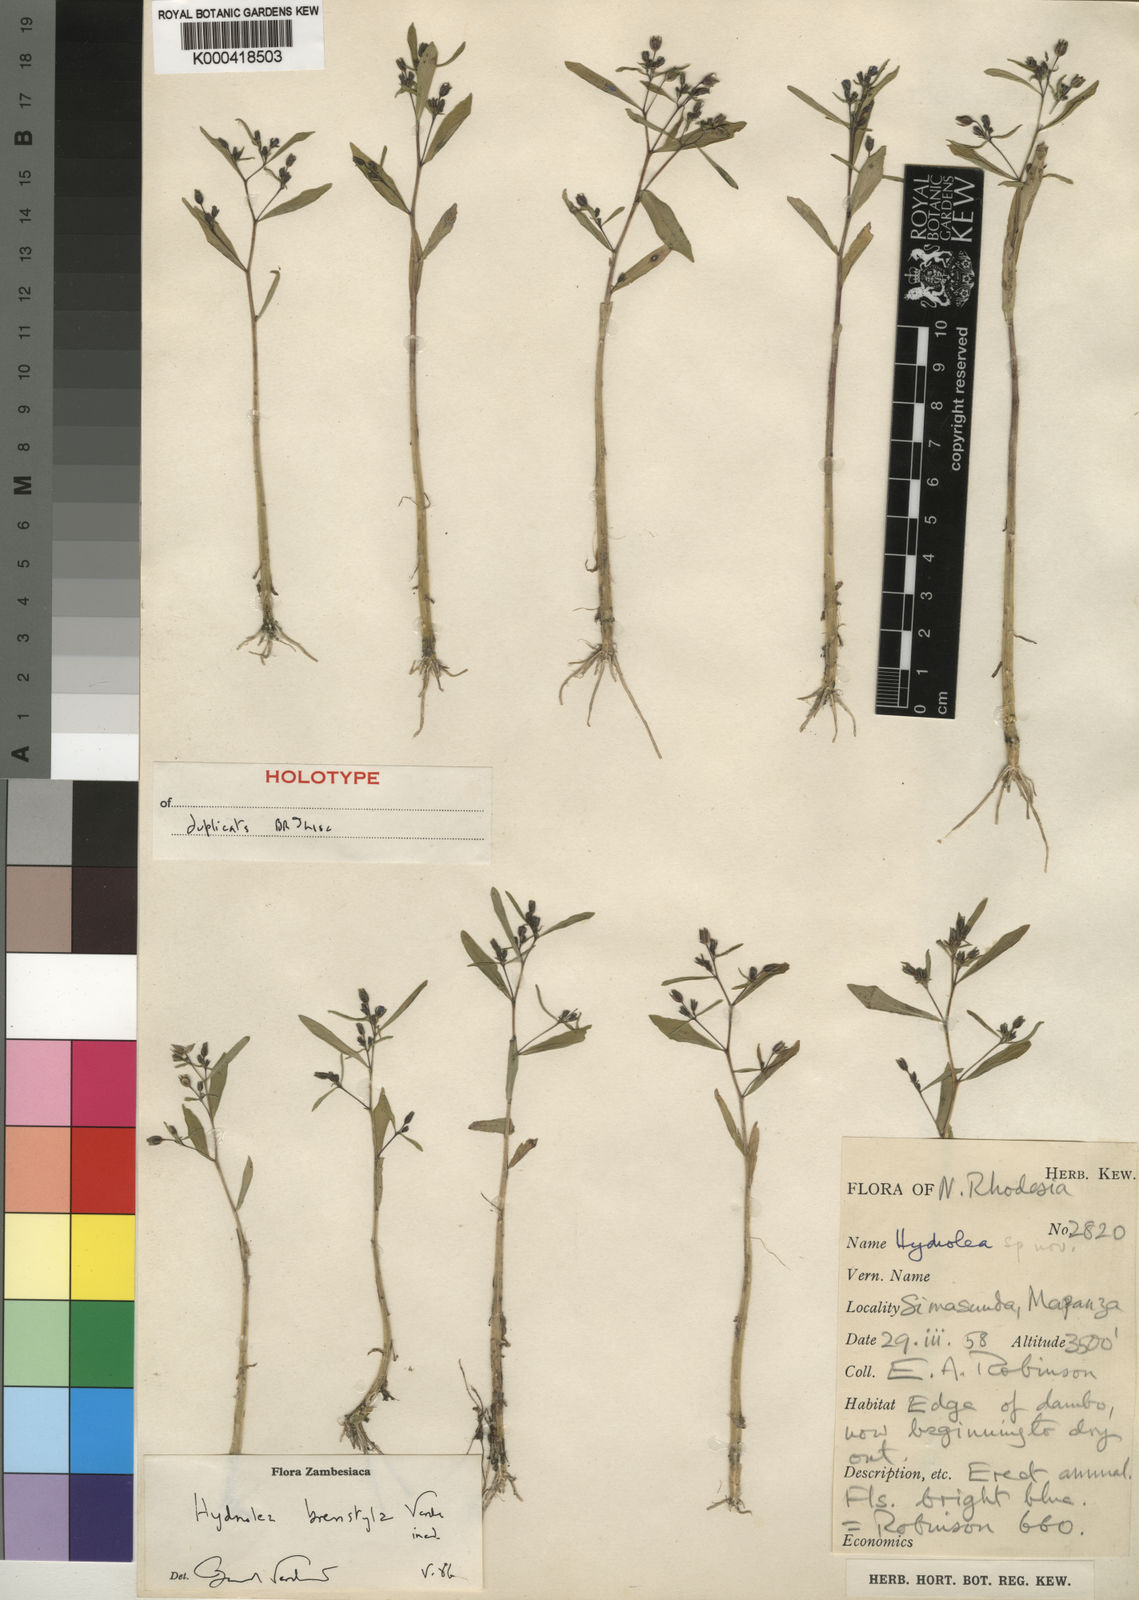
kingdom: Plantae
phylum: Tracheophyta
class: Magnoliopsida
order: Solanales
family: Hydroleaceae
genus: Hydrolea
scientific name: Hydrolea brevistyla
